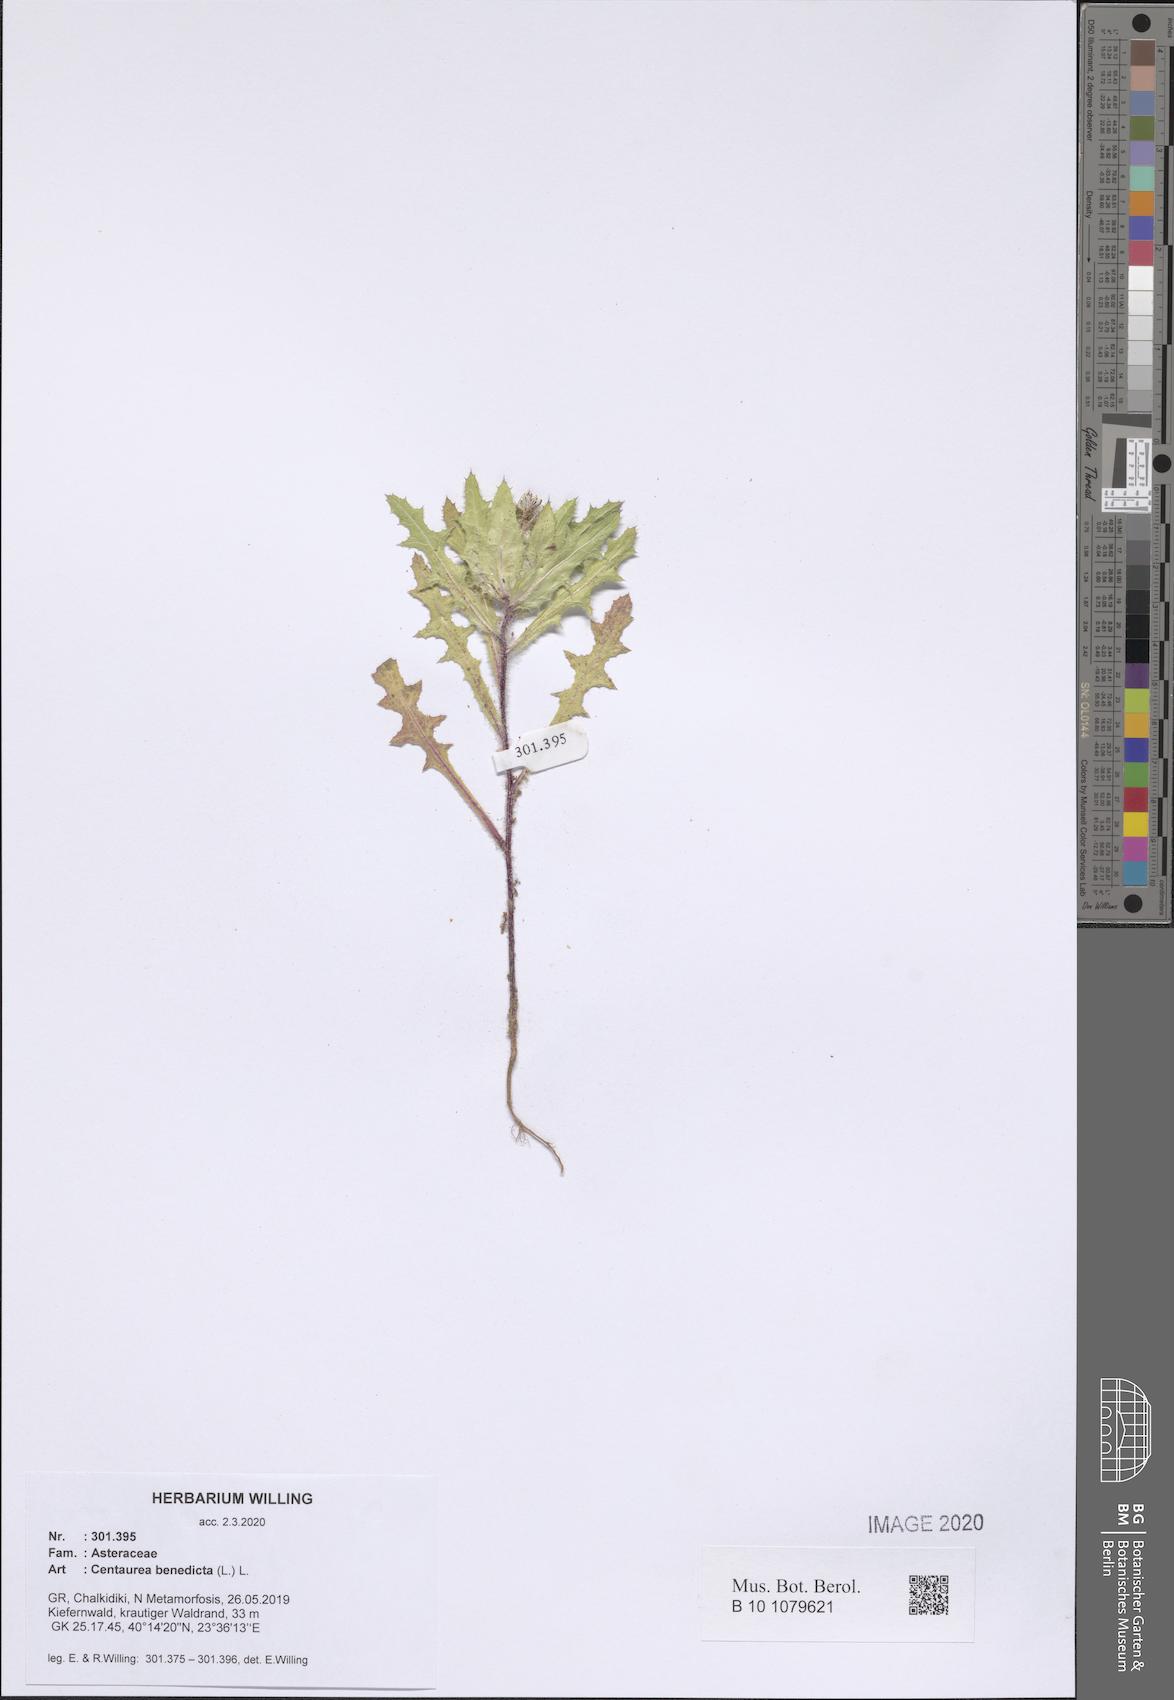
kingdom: Plantae
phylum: Tracheophyta
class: Magnoliopsida
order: Asterales
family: Asteraceae
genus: Centaurea
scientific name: Centaurea benedicta
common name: Blessed thistle
